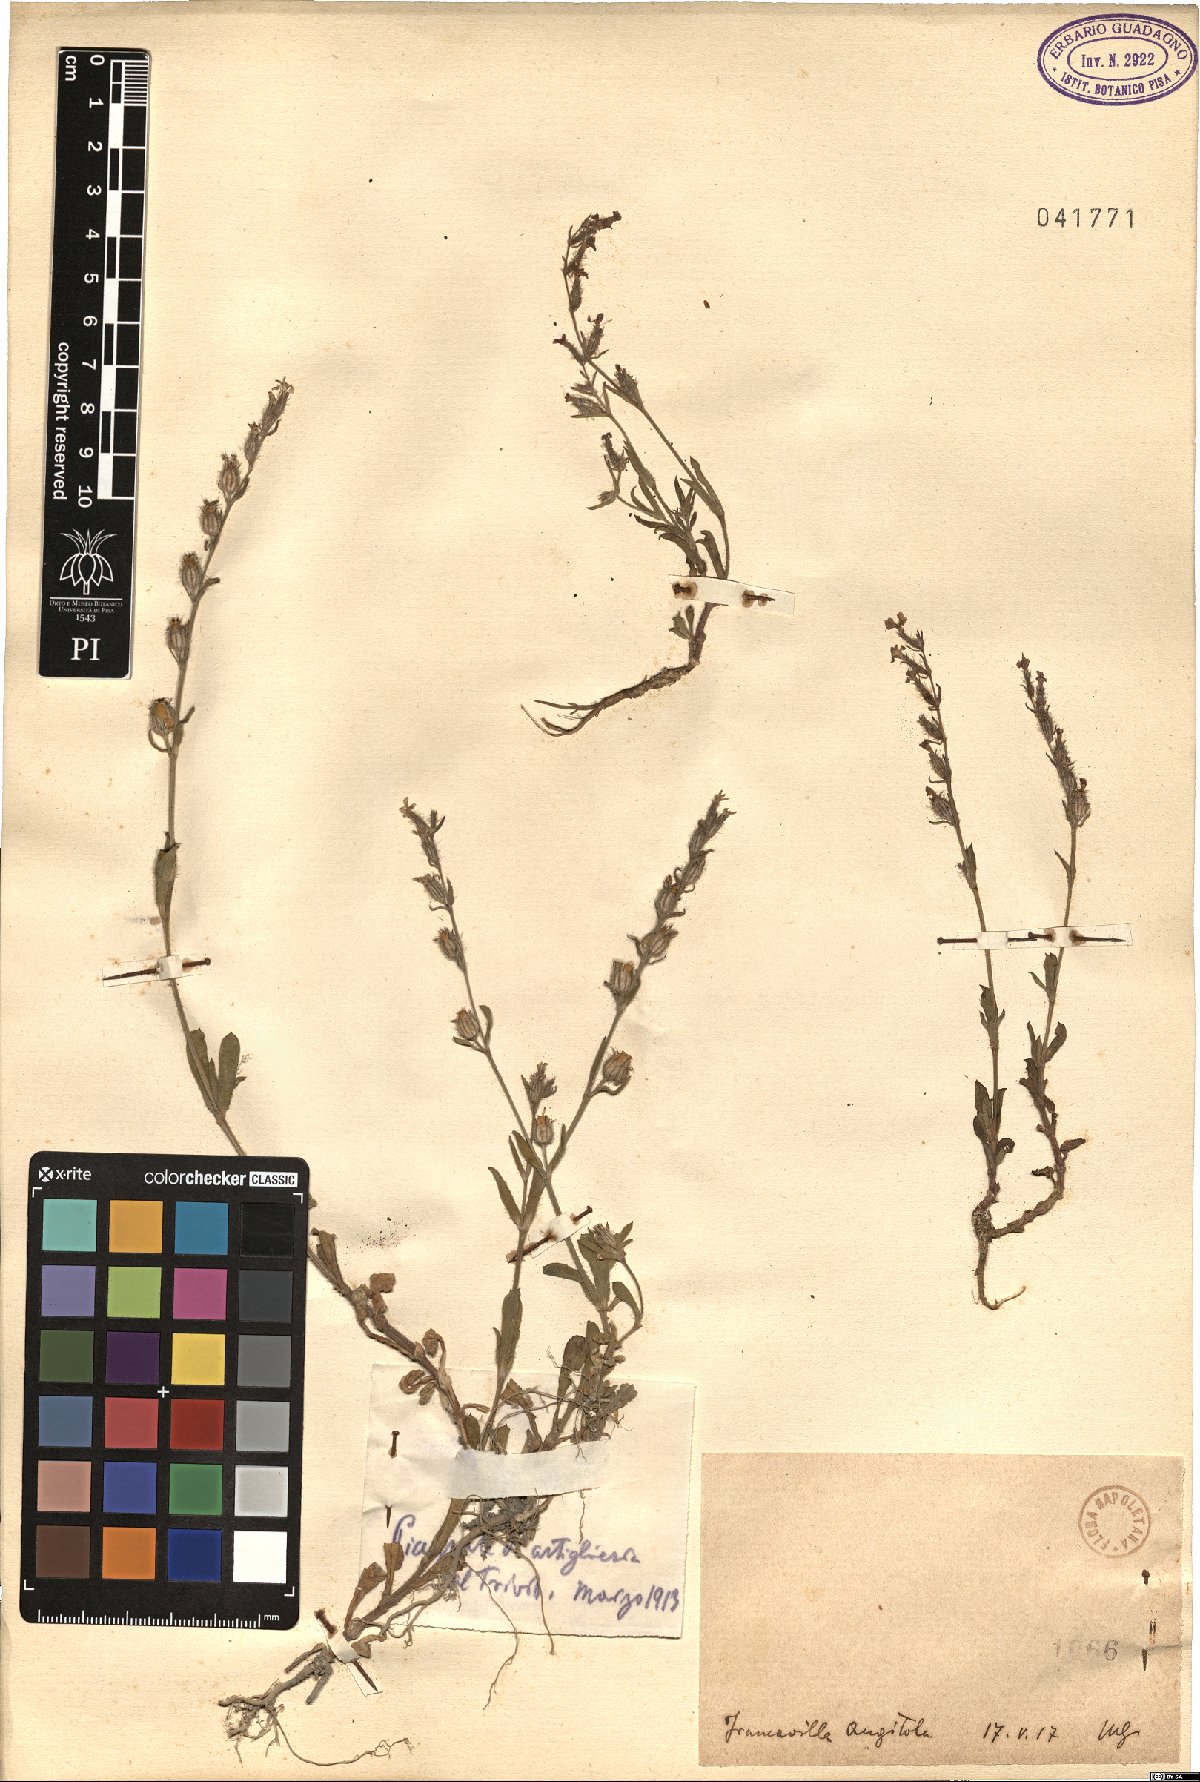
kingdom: Plantae
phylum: Tracheophyta
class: Magnoliopsida
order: Caryophyllales
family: Caryophyllaceae
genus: Silene
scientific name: Silene gallica
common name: Small-flowered catchfly
